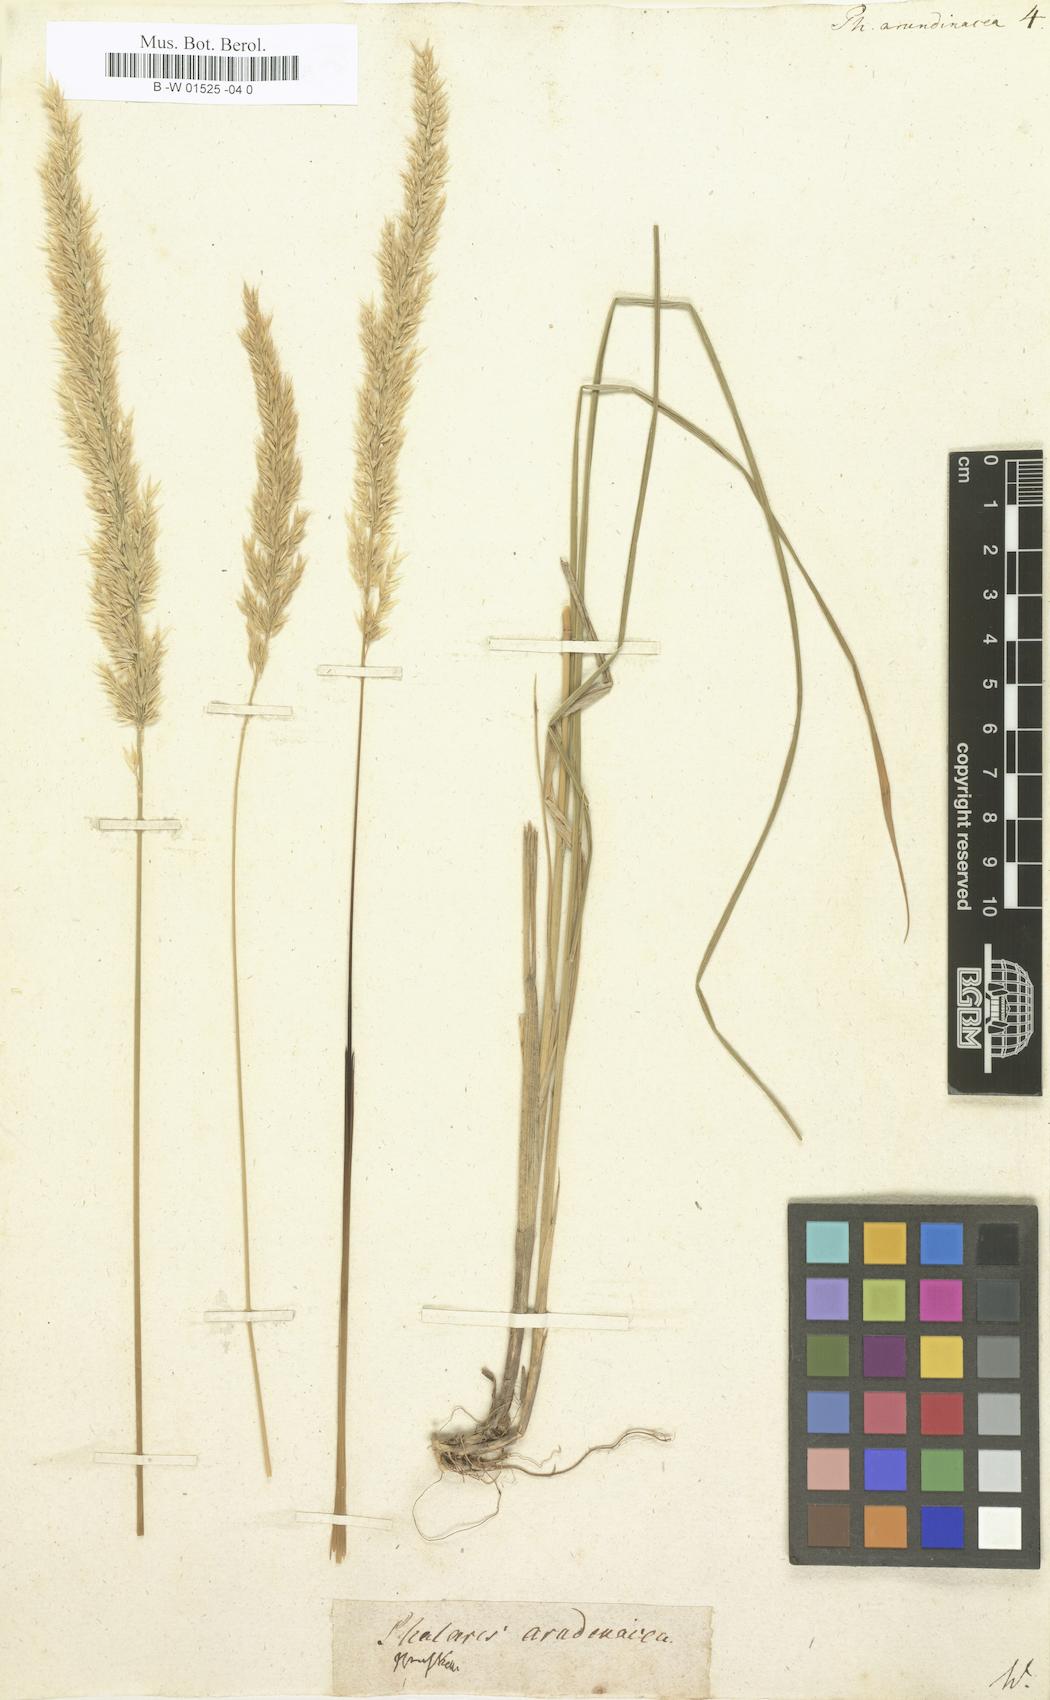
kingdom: Plantae
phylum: Tracheophyta
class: Liliopsida
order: Poales
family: Poaceae
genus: Phalaris
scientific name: Phalaris arundinacea
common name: Reed canary-grass
